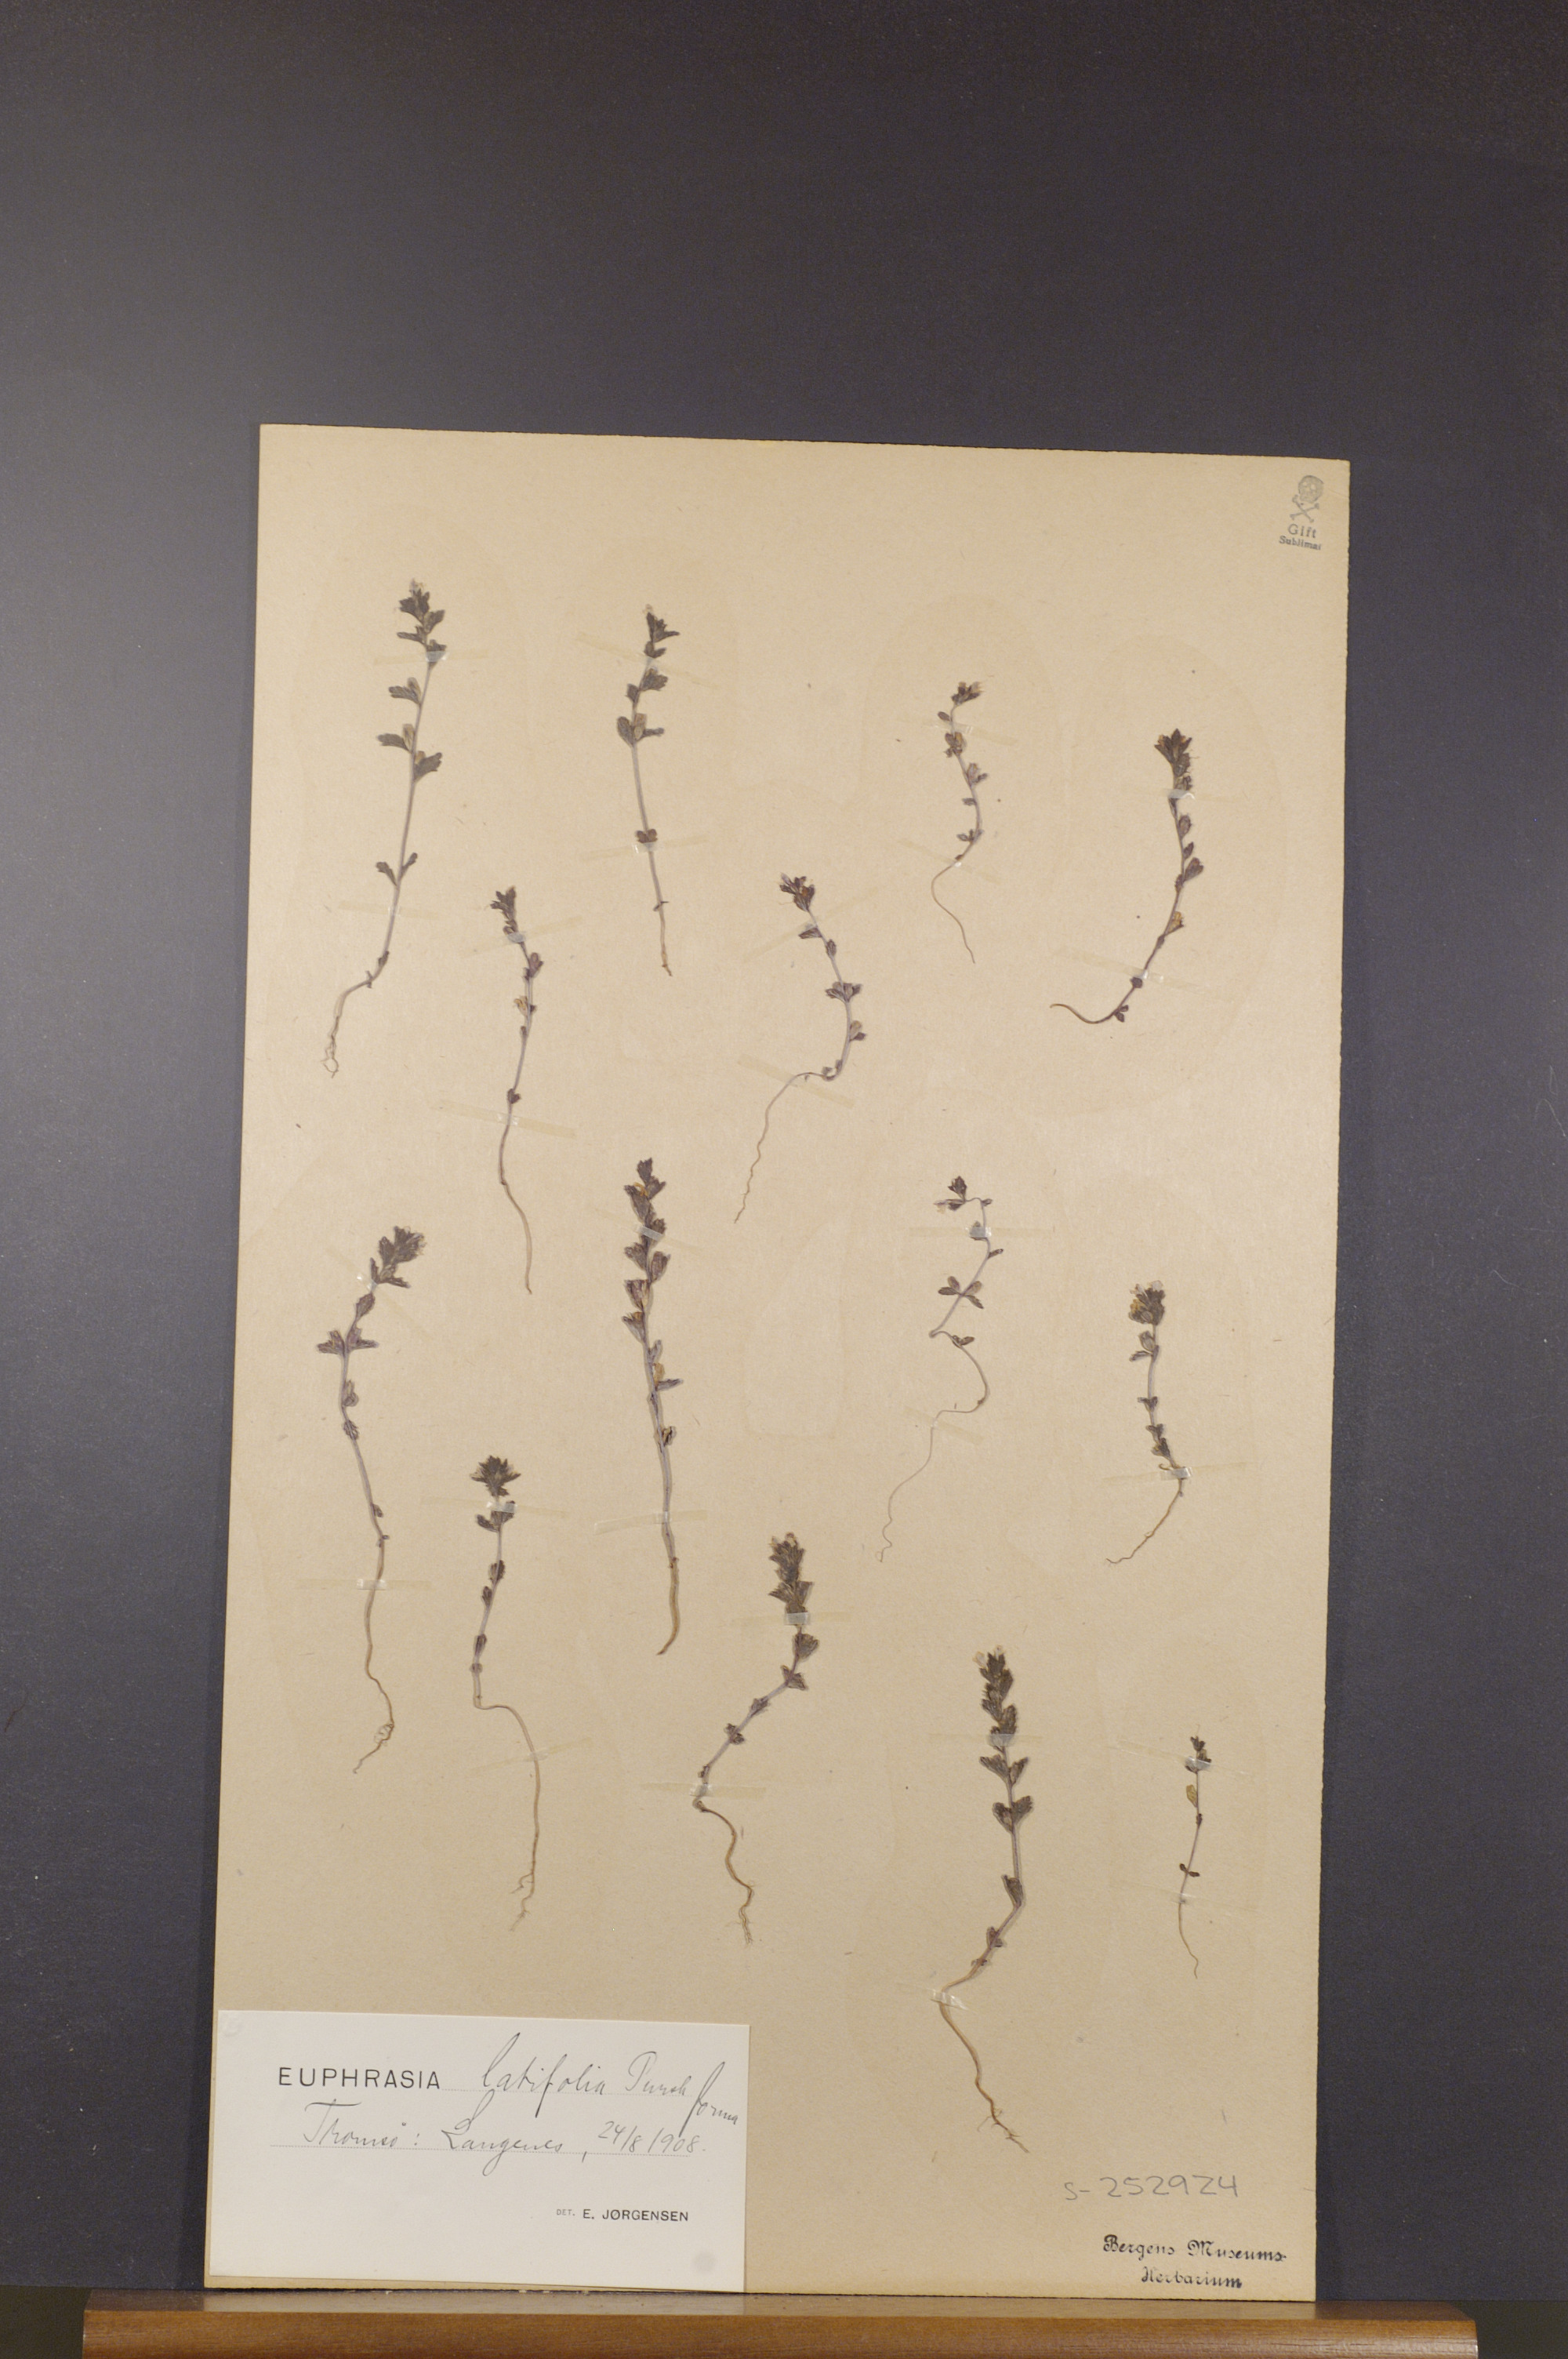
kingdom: Plantae
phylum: Tracheophyta
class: Magnoliopsida
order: Lamiales
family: Orobanchaceae
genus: Euphrasia
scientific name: Euphrasia wettsteinii
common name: Wettstein's eyebright
